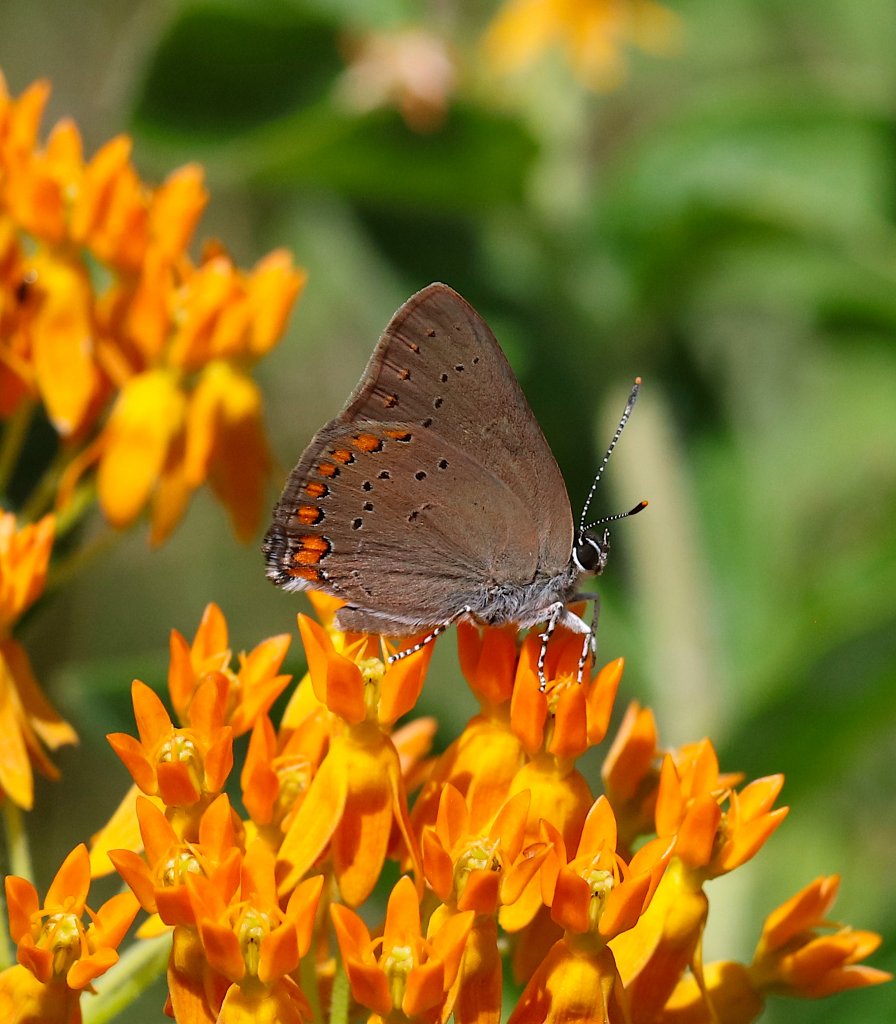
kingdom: Animalia
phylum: Arthropoda
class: Insecta
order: Lepidoptera
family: Lycaenidae
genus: Harkenclenus
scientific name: Harkenclenus titus
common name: Coral Hairstreak
